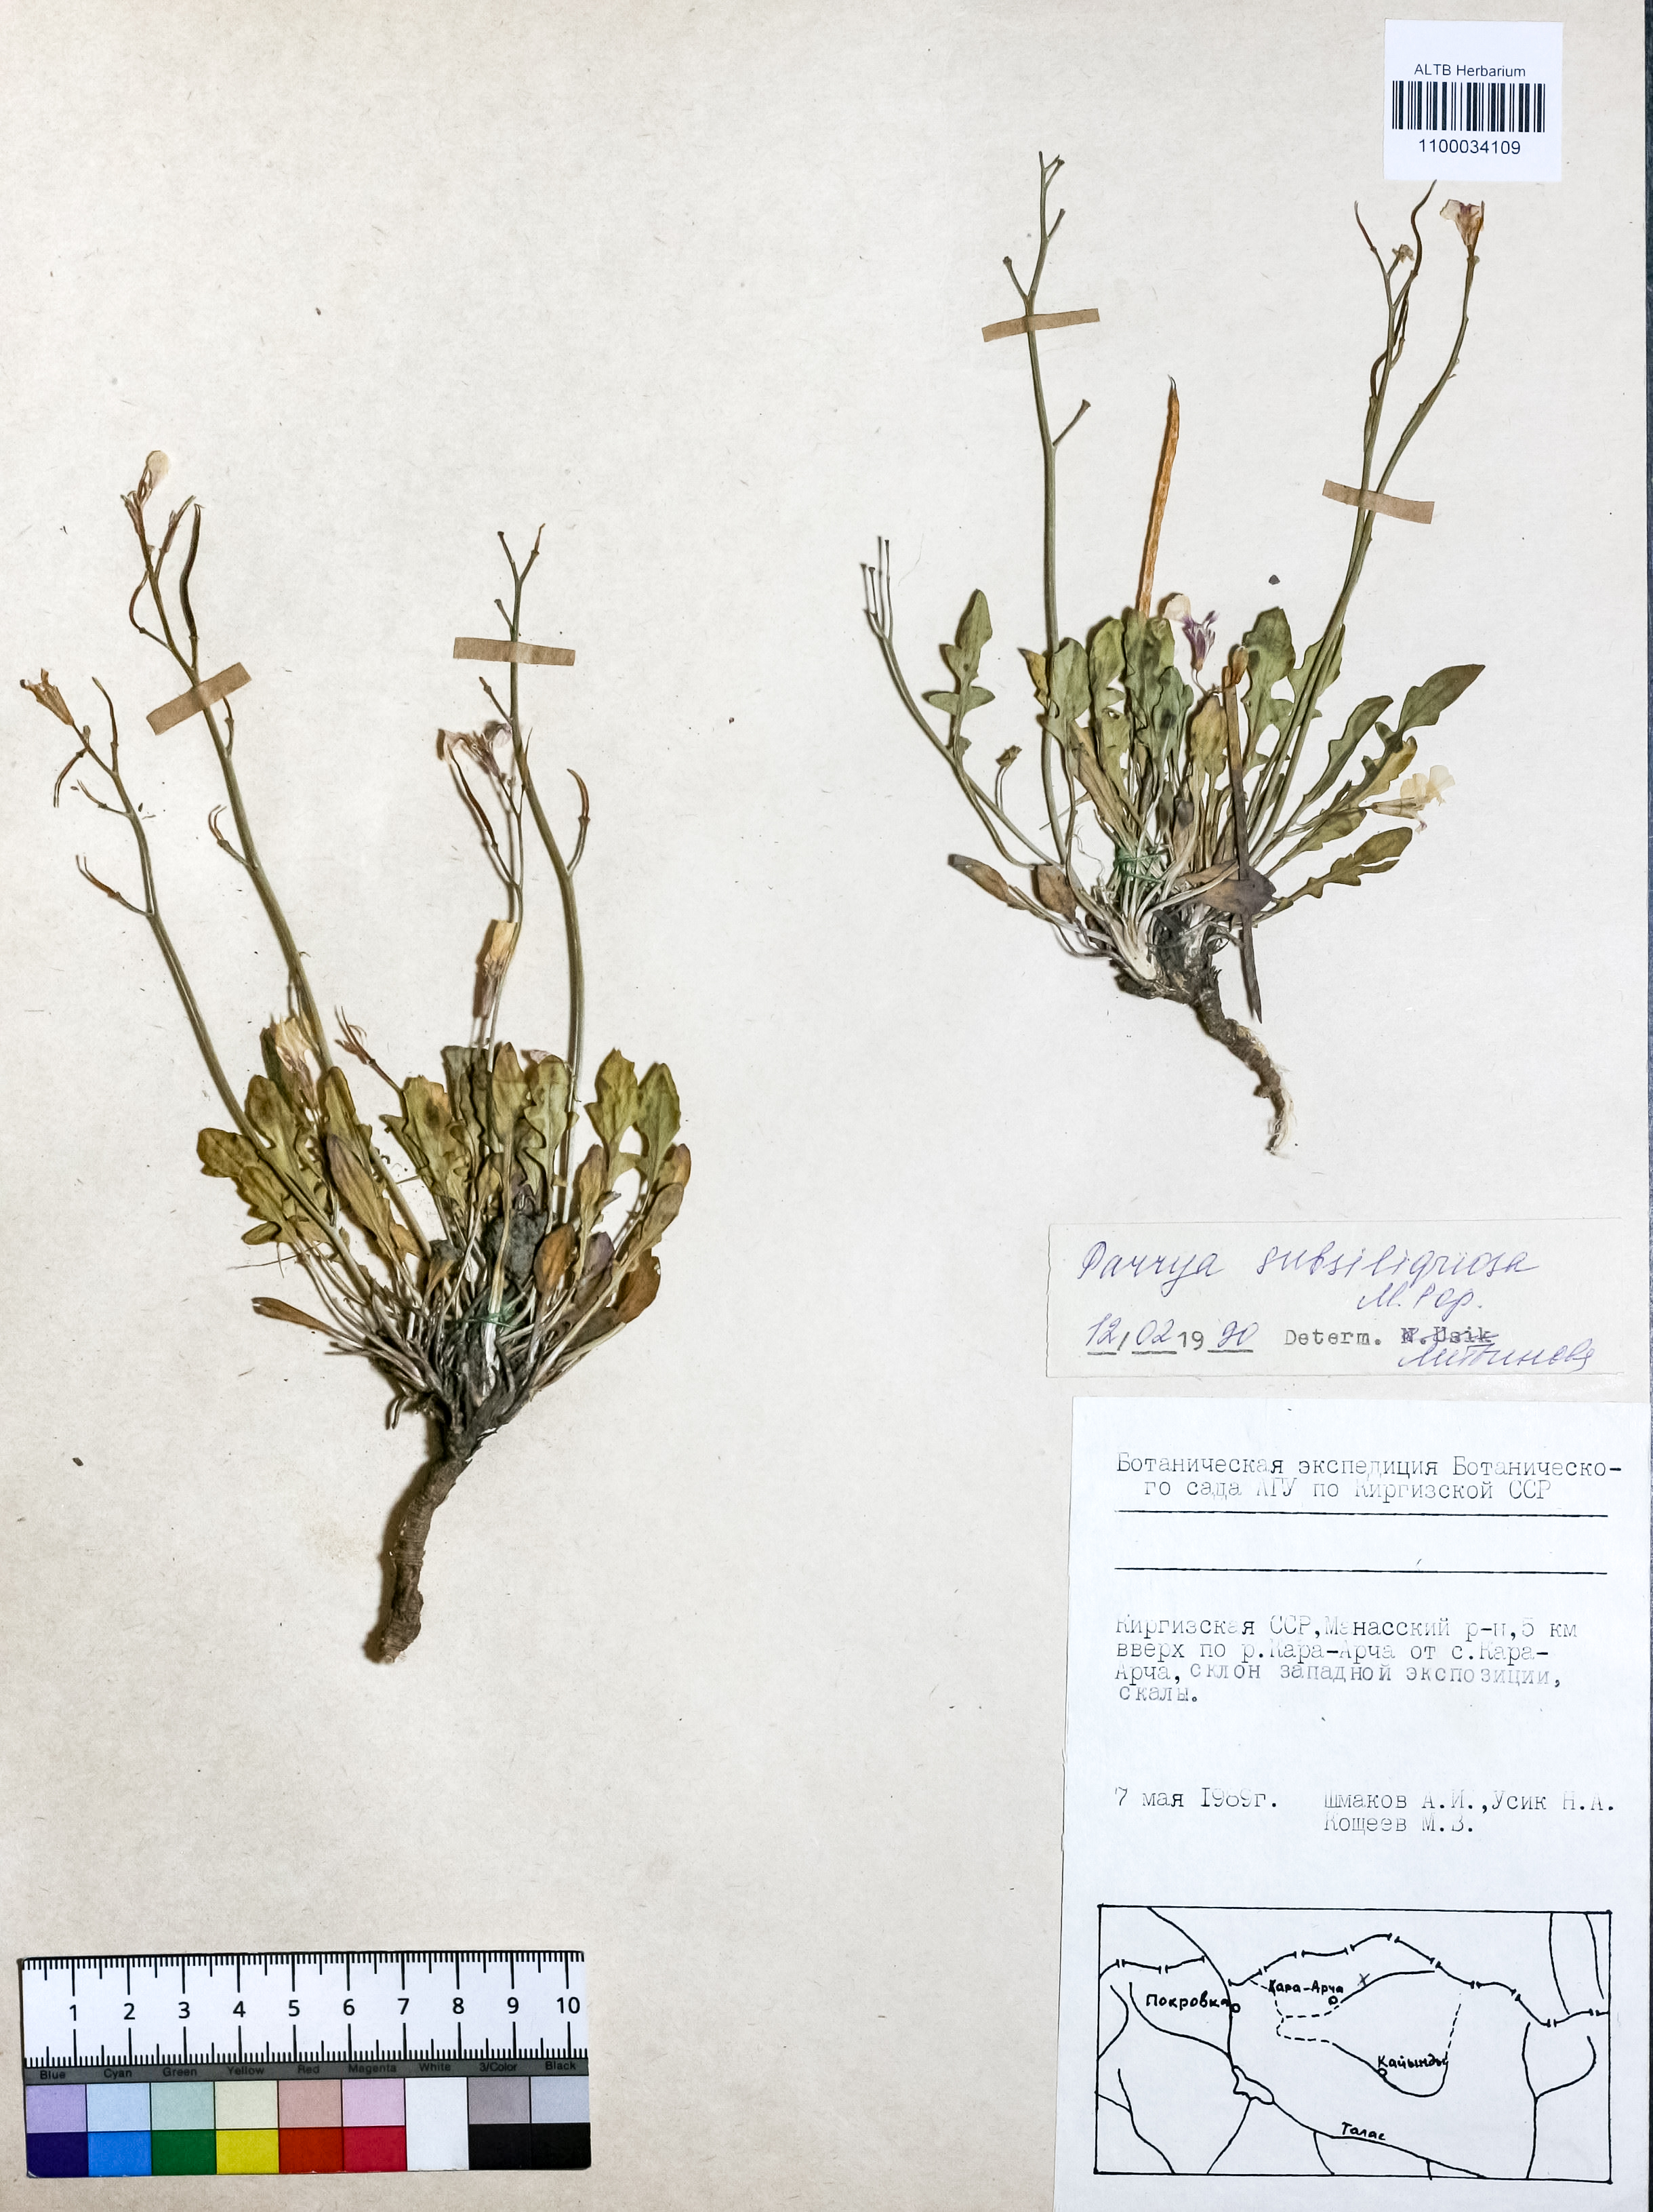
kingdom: Plantae
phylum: Tracheophyta
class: Magnoliopsida
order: Brassicales
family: Brassicaceae
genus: Parrya
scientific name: Parrya subsiliquosa
